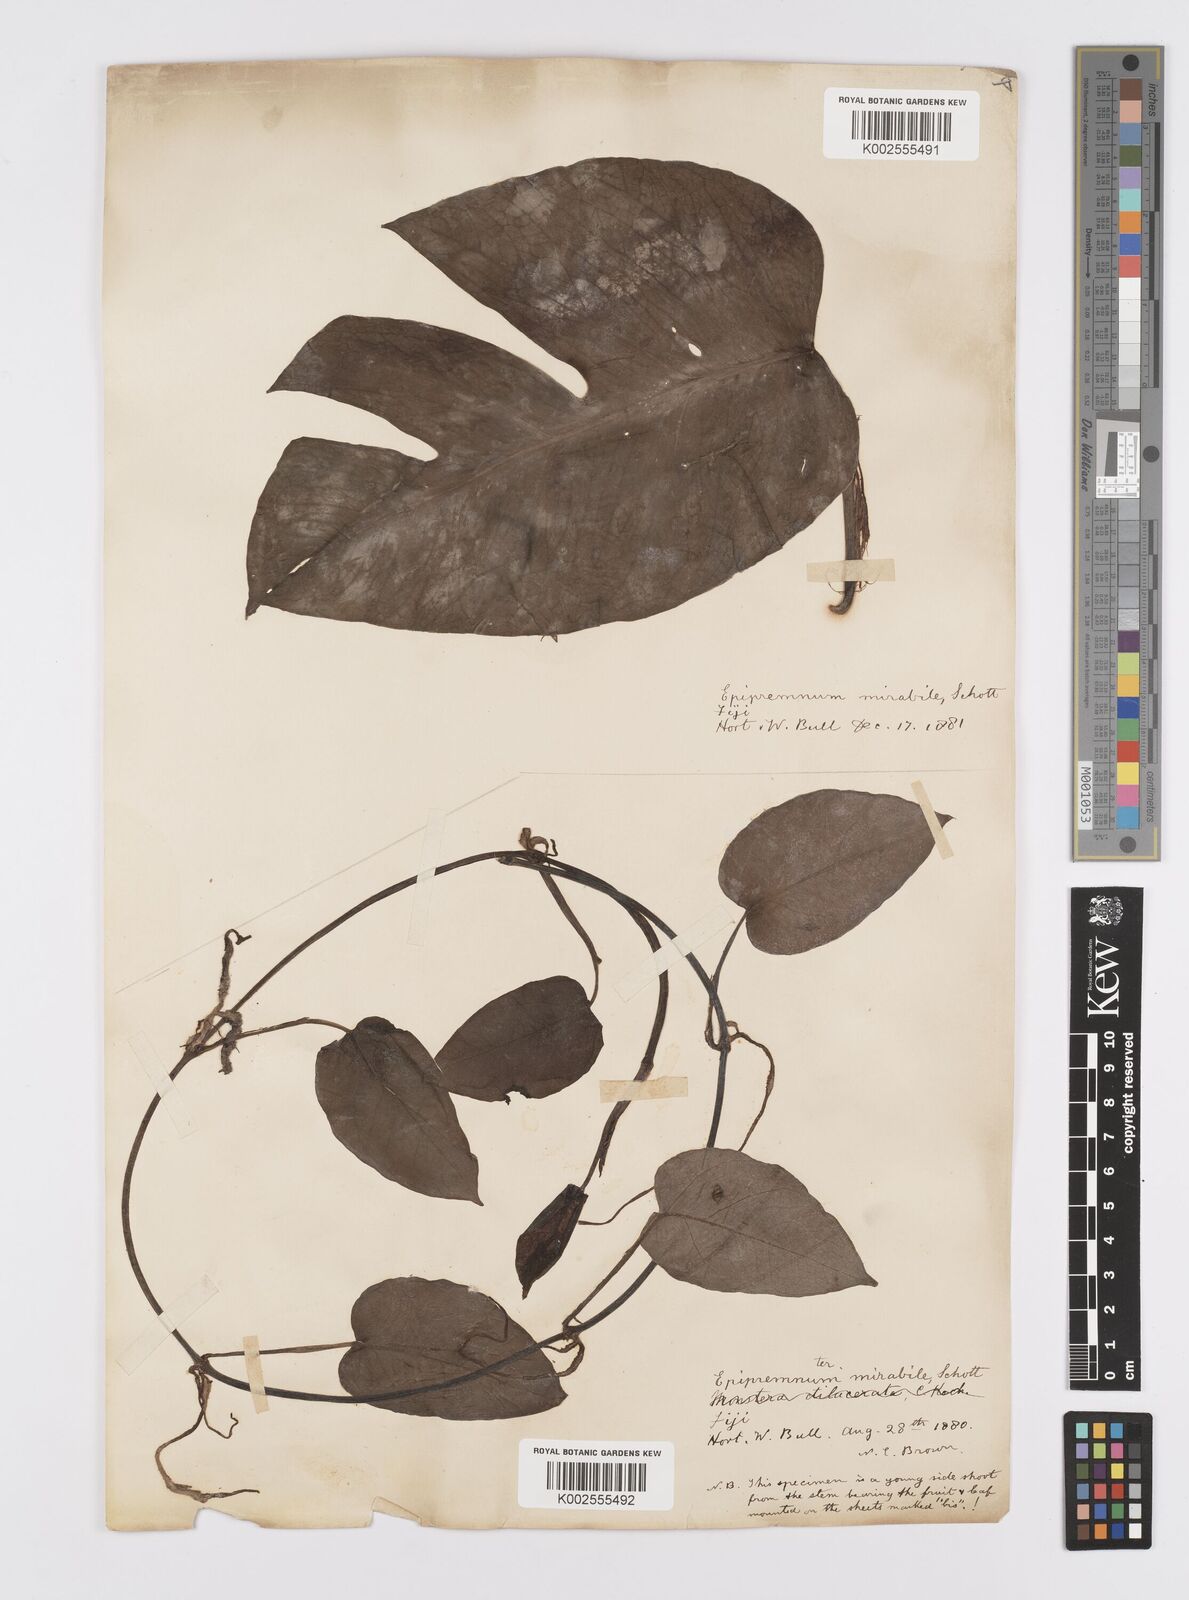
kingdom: Plantae
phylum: Tracheophyta
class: Liliopsida
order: Alismatales
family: Araceae
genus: Epipremnum
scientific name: Epipremnum pinnatum
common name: Centipede tongavine
